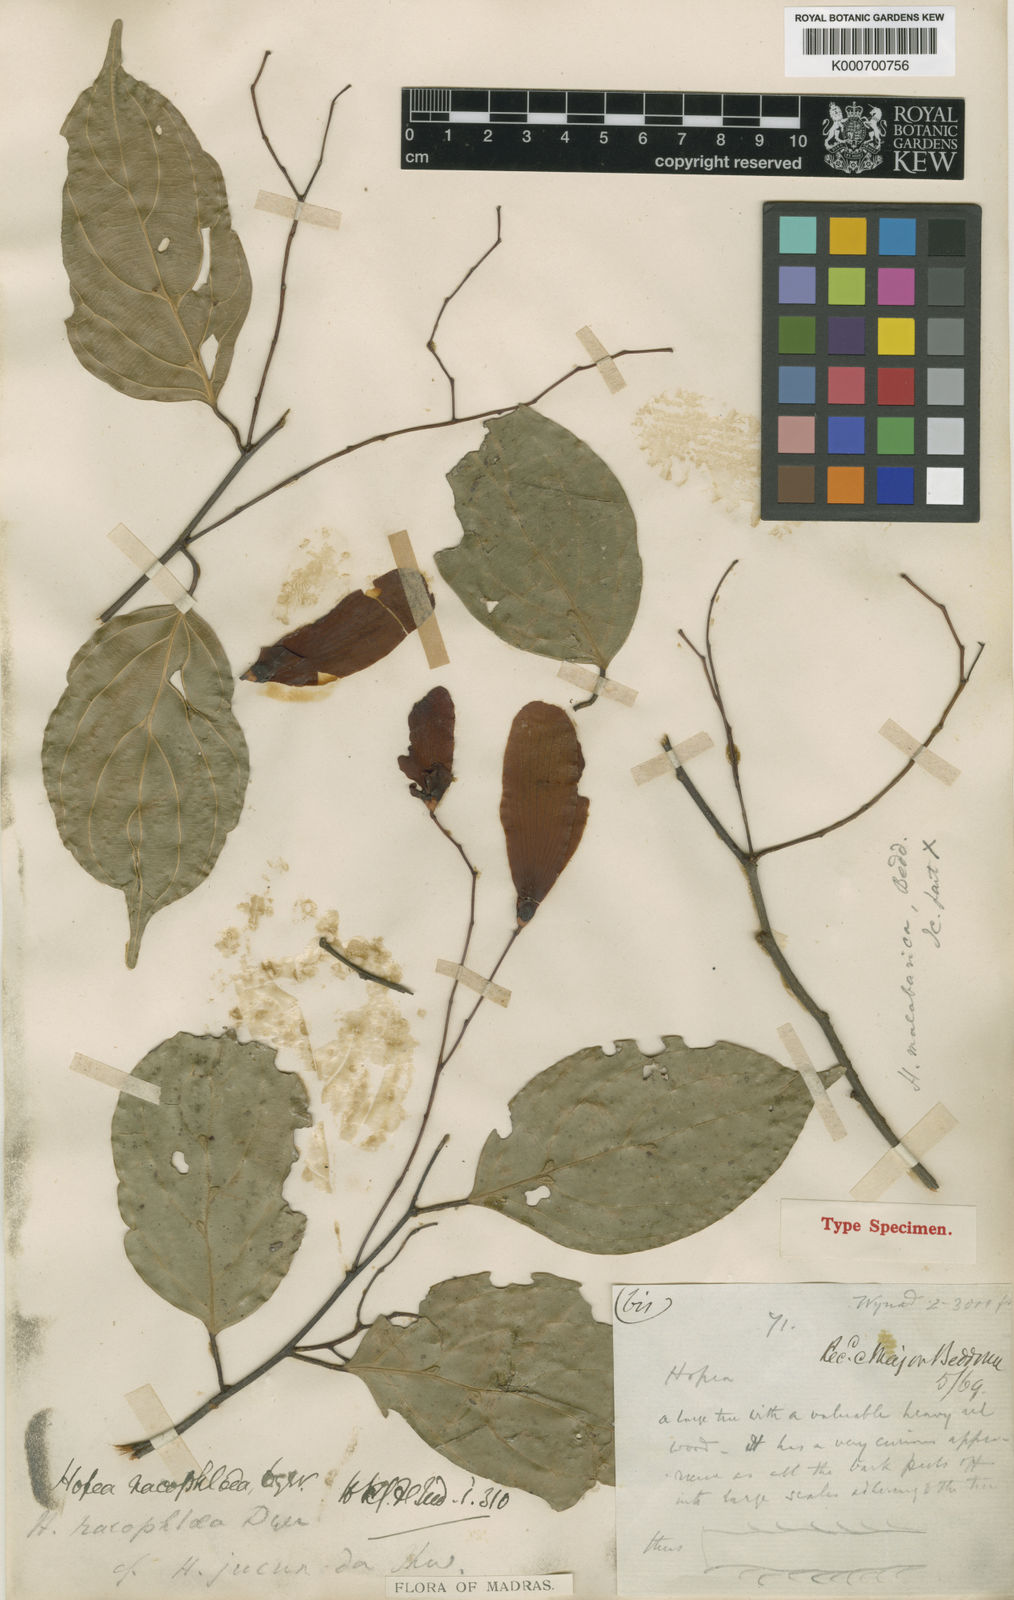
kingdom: Plantae
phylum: Tracheophyta
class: Magnoliopsida
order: Malvales
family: Dipterocarpaceae
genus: Hopea
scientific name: Hopea racophloea
